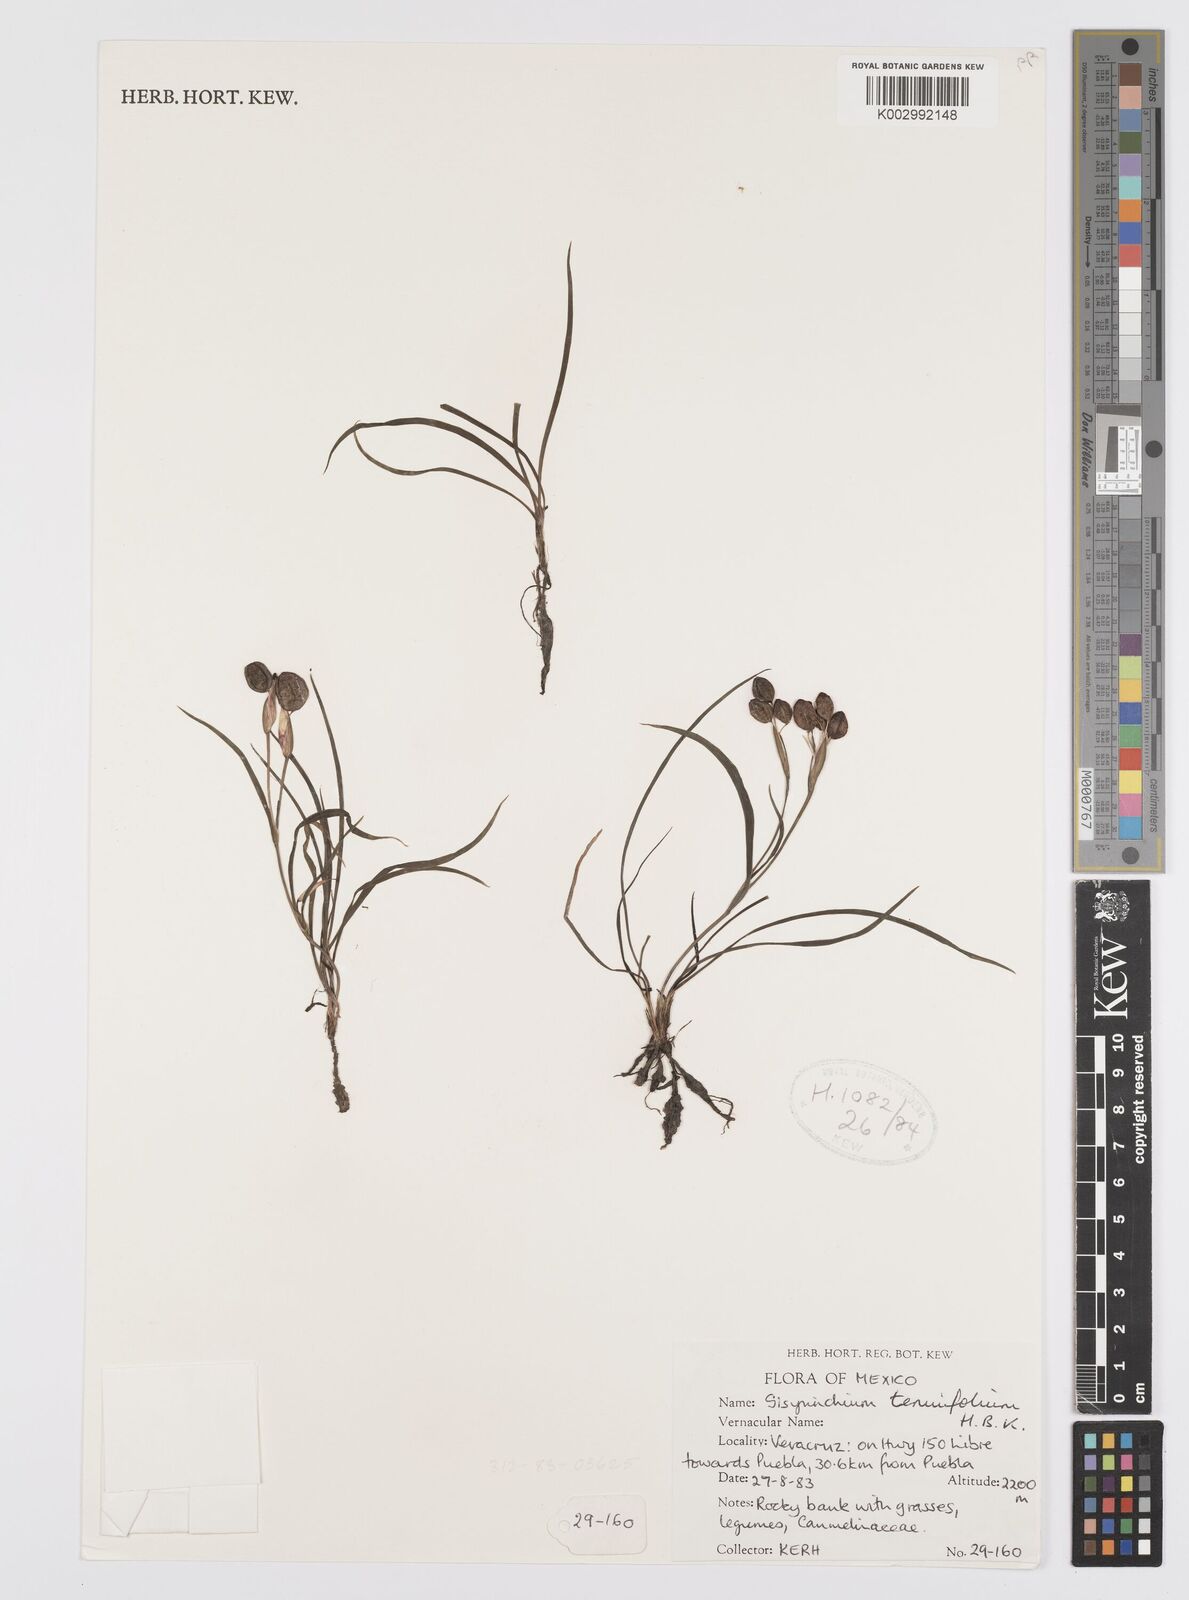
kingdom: Plantae
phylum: Tracheophyta
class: Liliopsida
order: Asparagales
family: Iridaceae
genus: Sisyrinchium
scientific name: Sisyrinchium langloisii
